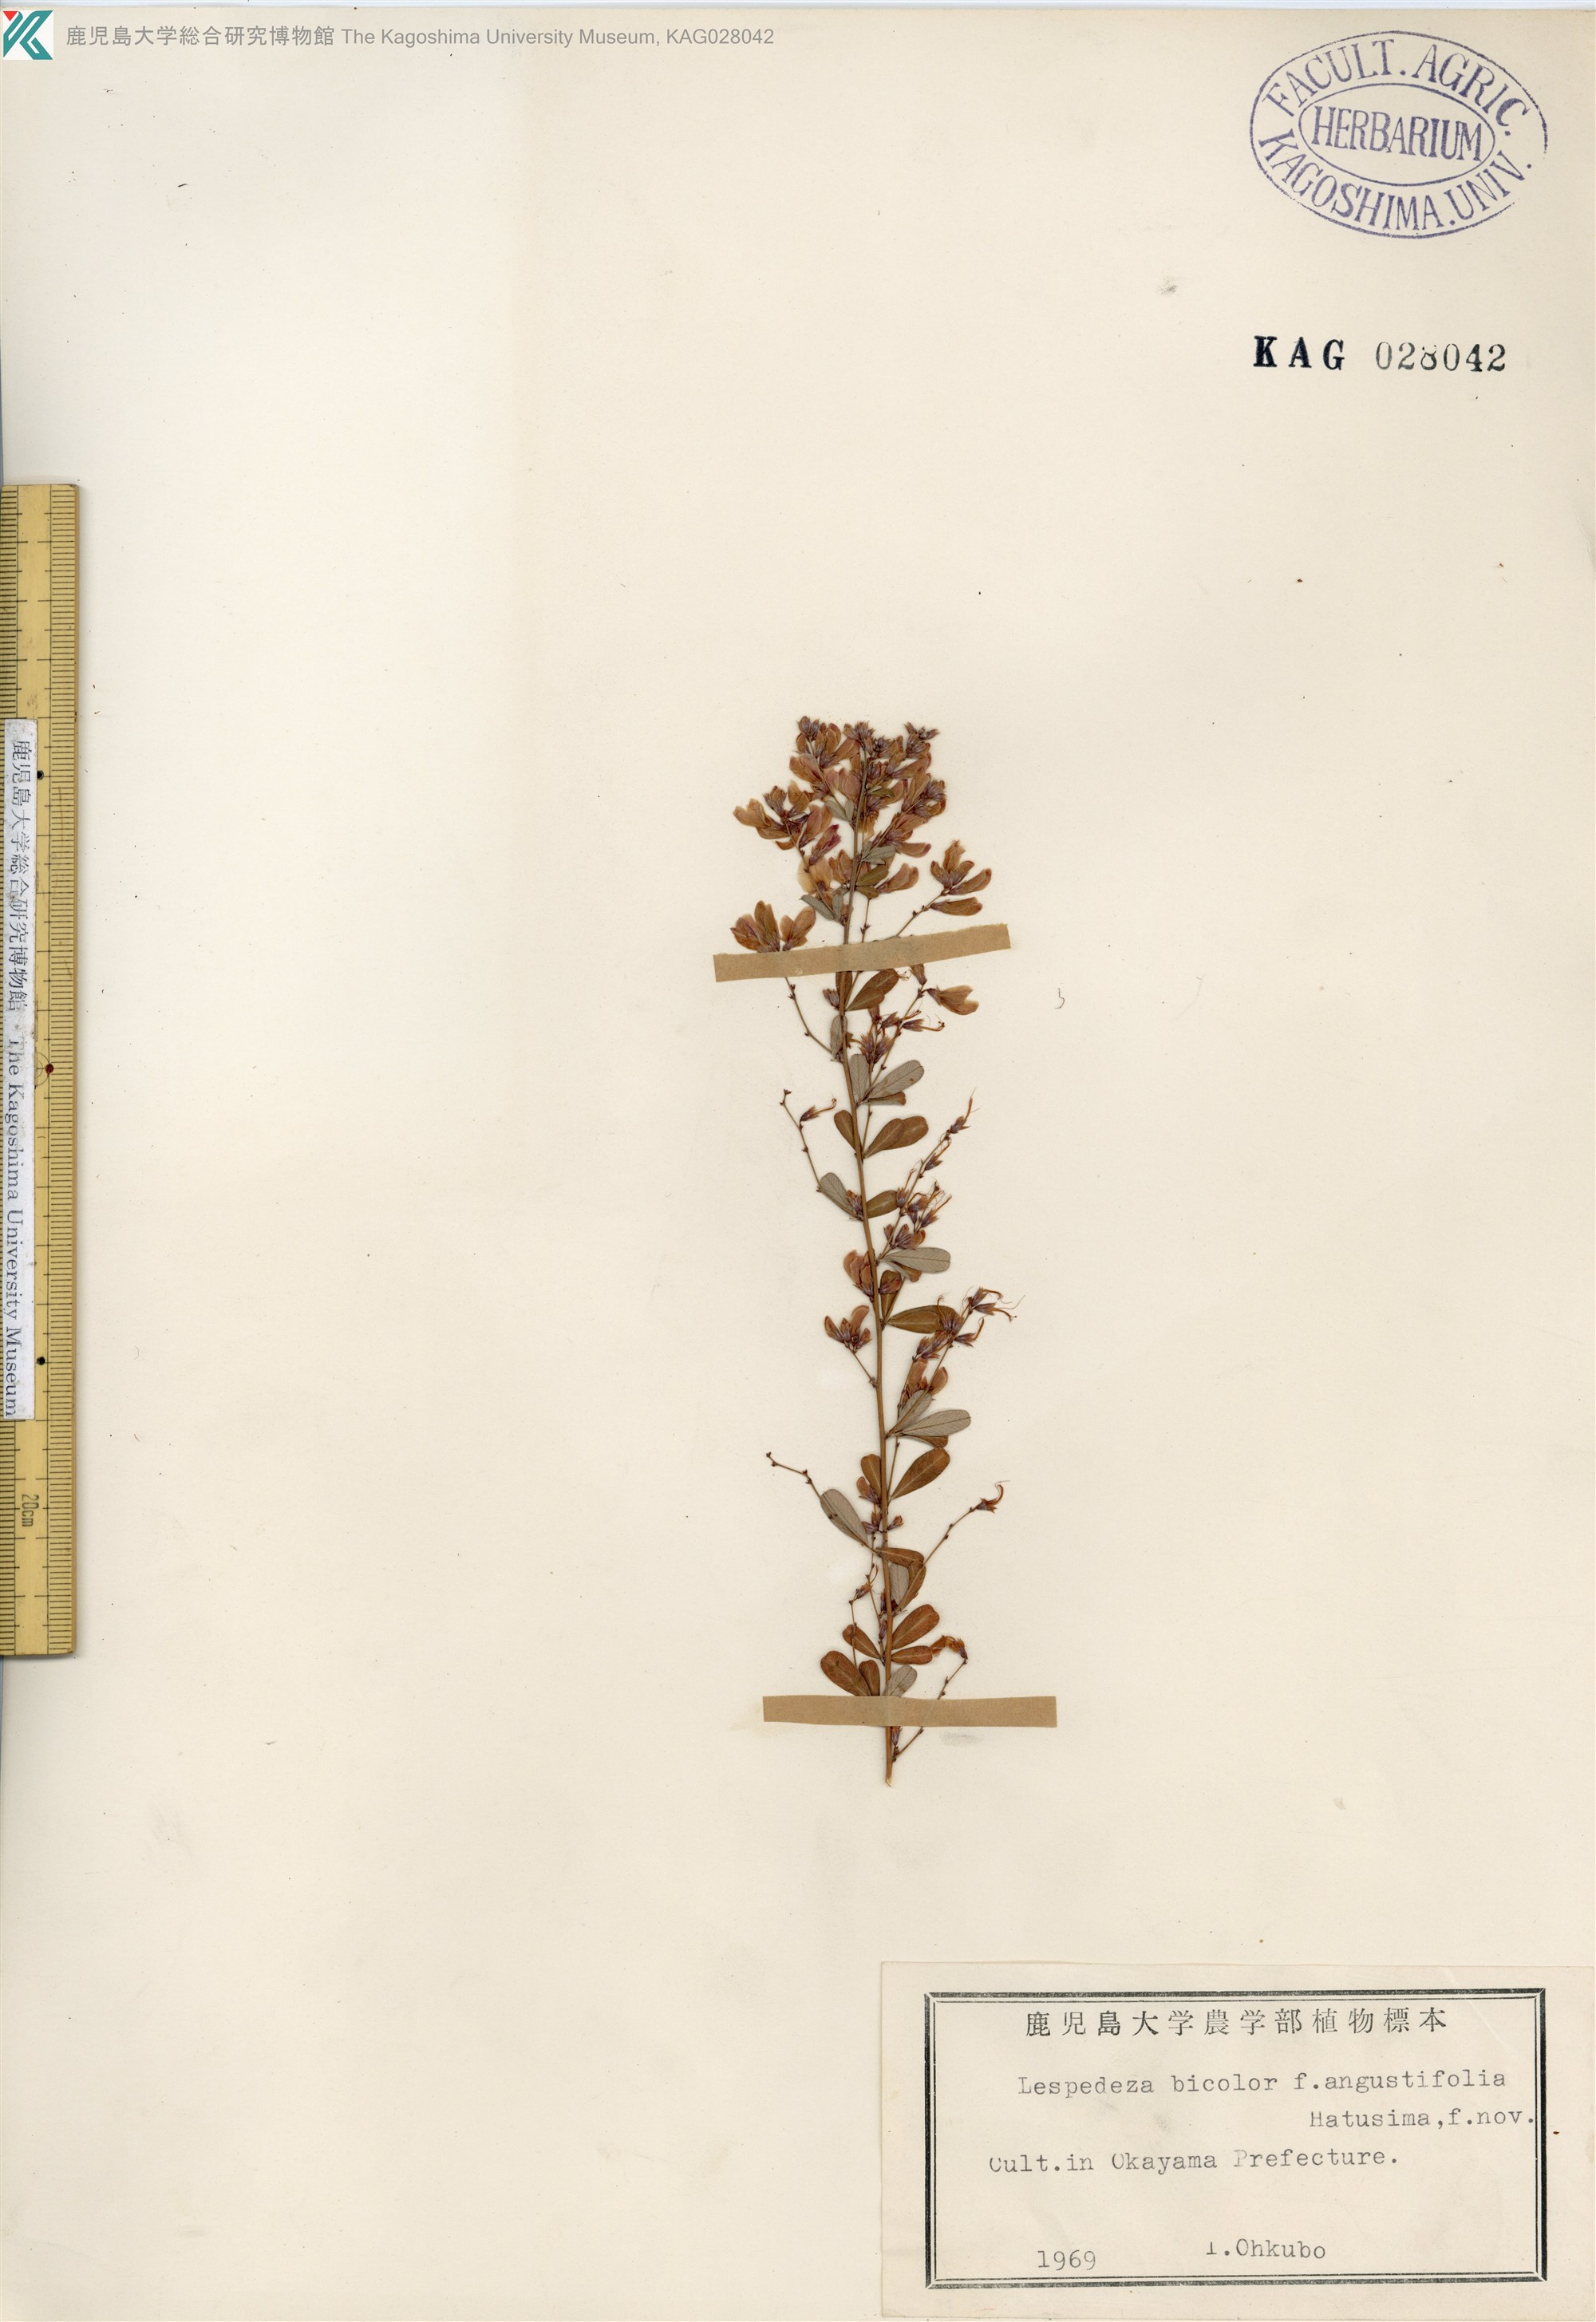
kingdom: Plantae
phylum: Tracheophyta
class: Magnoliopsida
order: Fabales
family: Fabaceae
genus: Lespedeza
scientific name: Lespedeza bicolor
